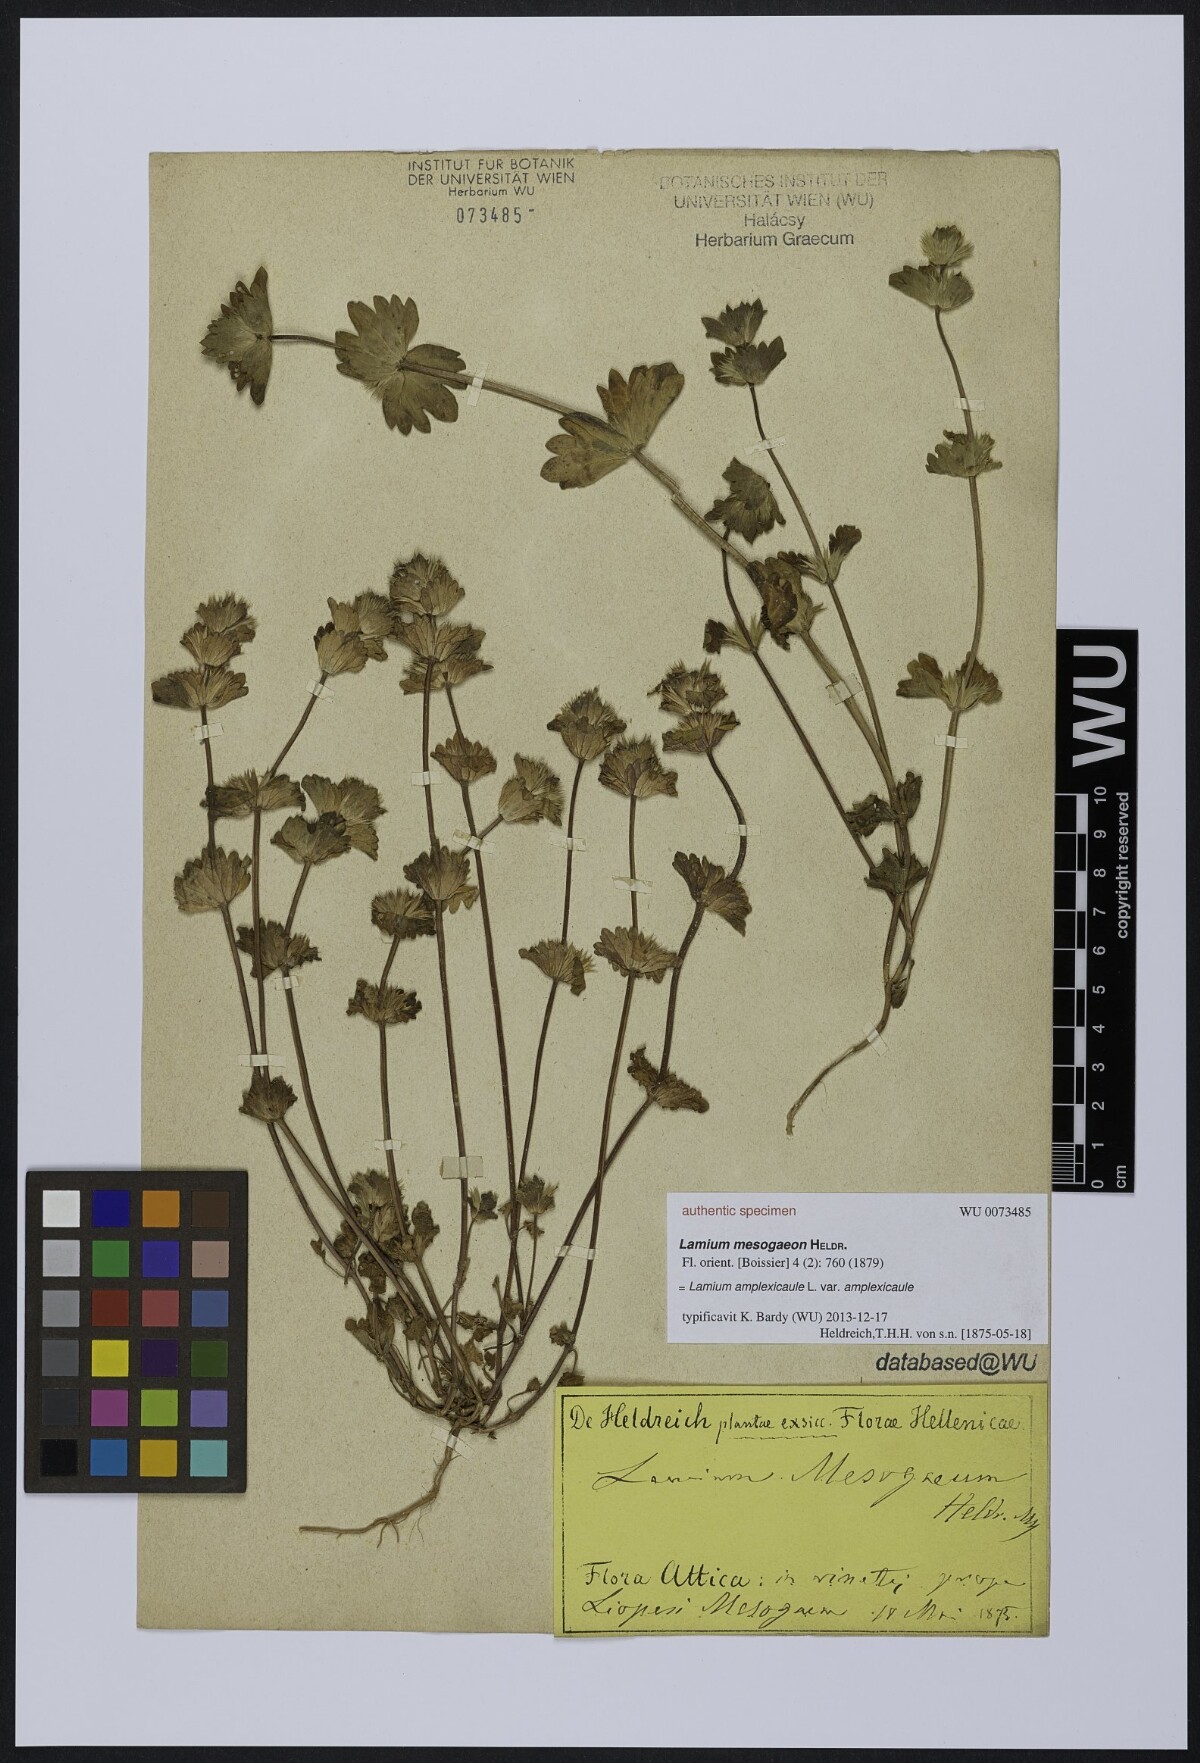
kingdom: Plantae
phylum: Tracheophyta
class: Magnoliopsida
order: Lamiales
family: Lamiaceae
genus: Lamium
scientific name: Lamium amplexicaule
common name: Henbit dead-nettle
